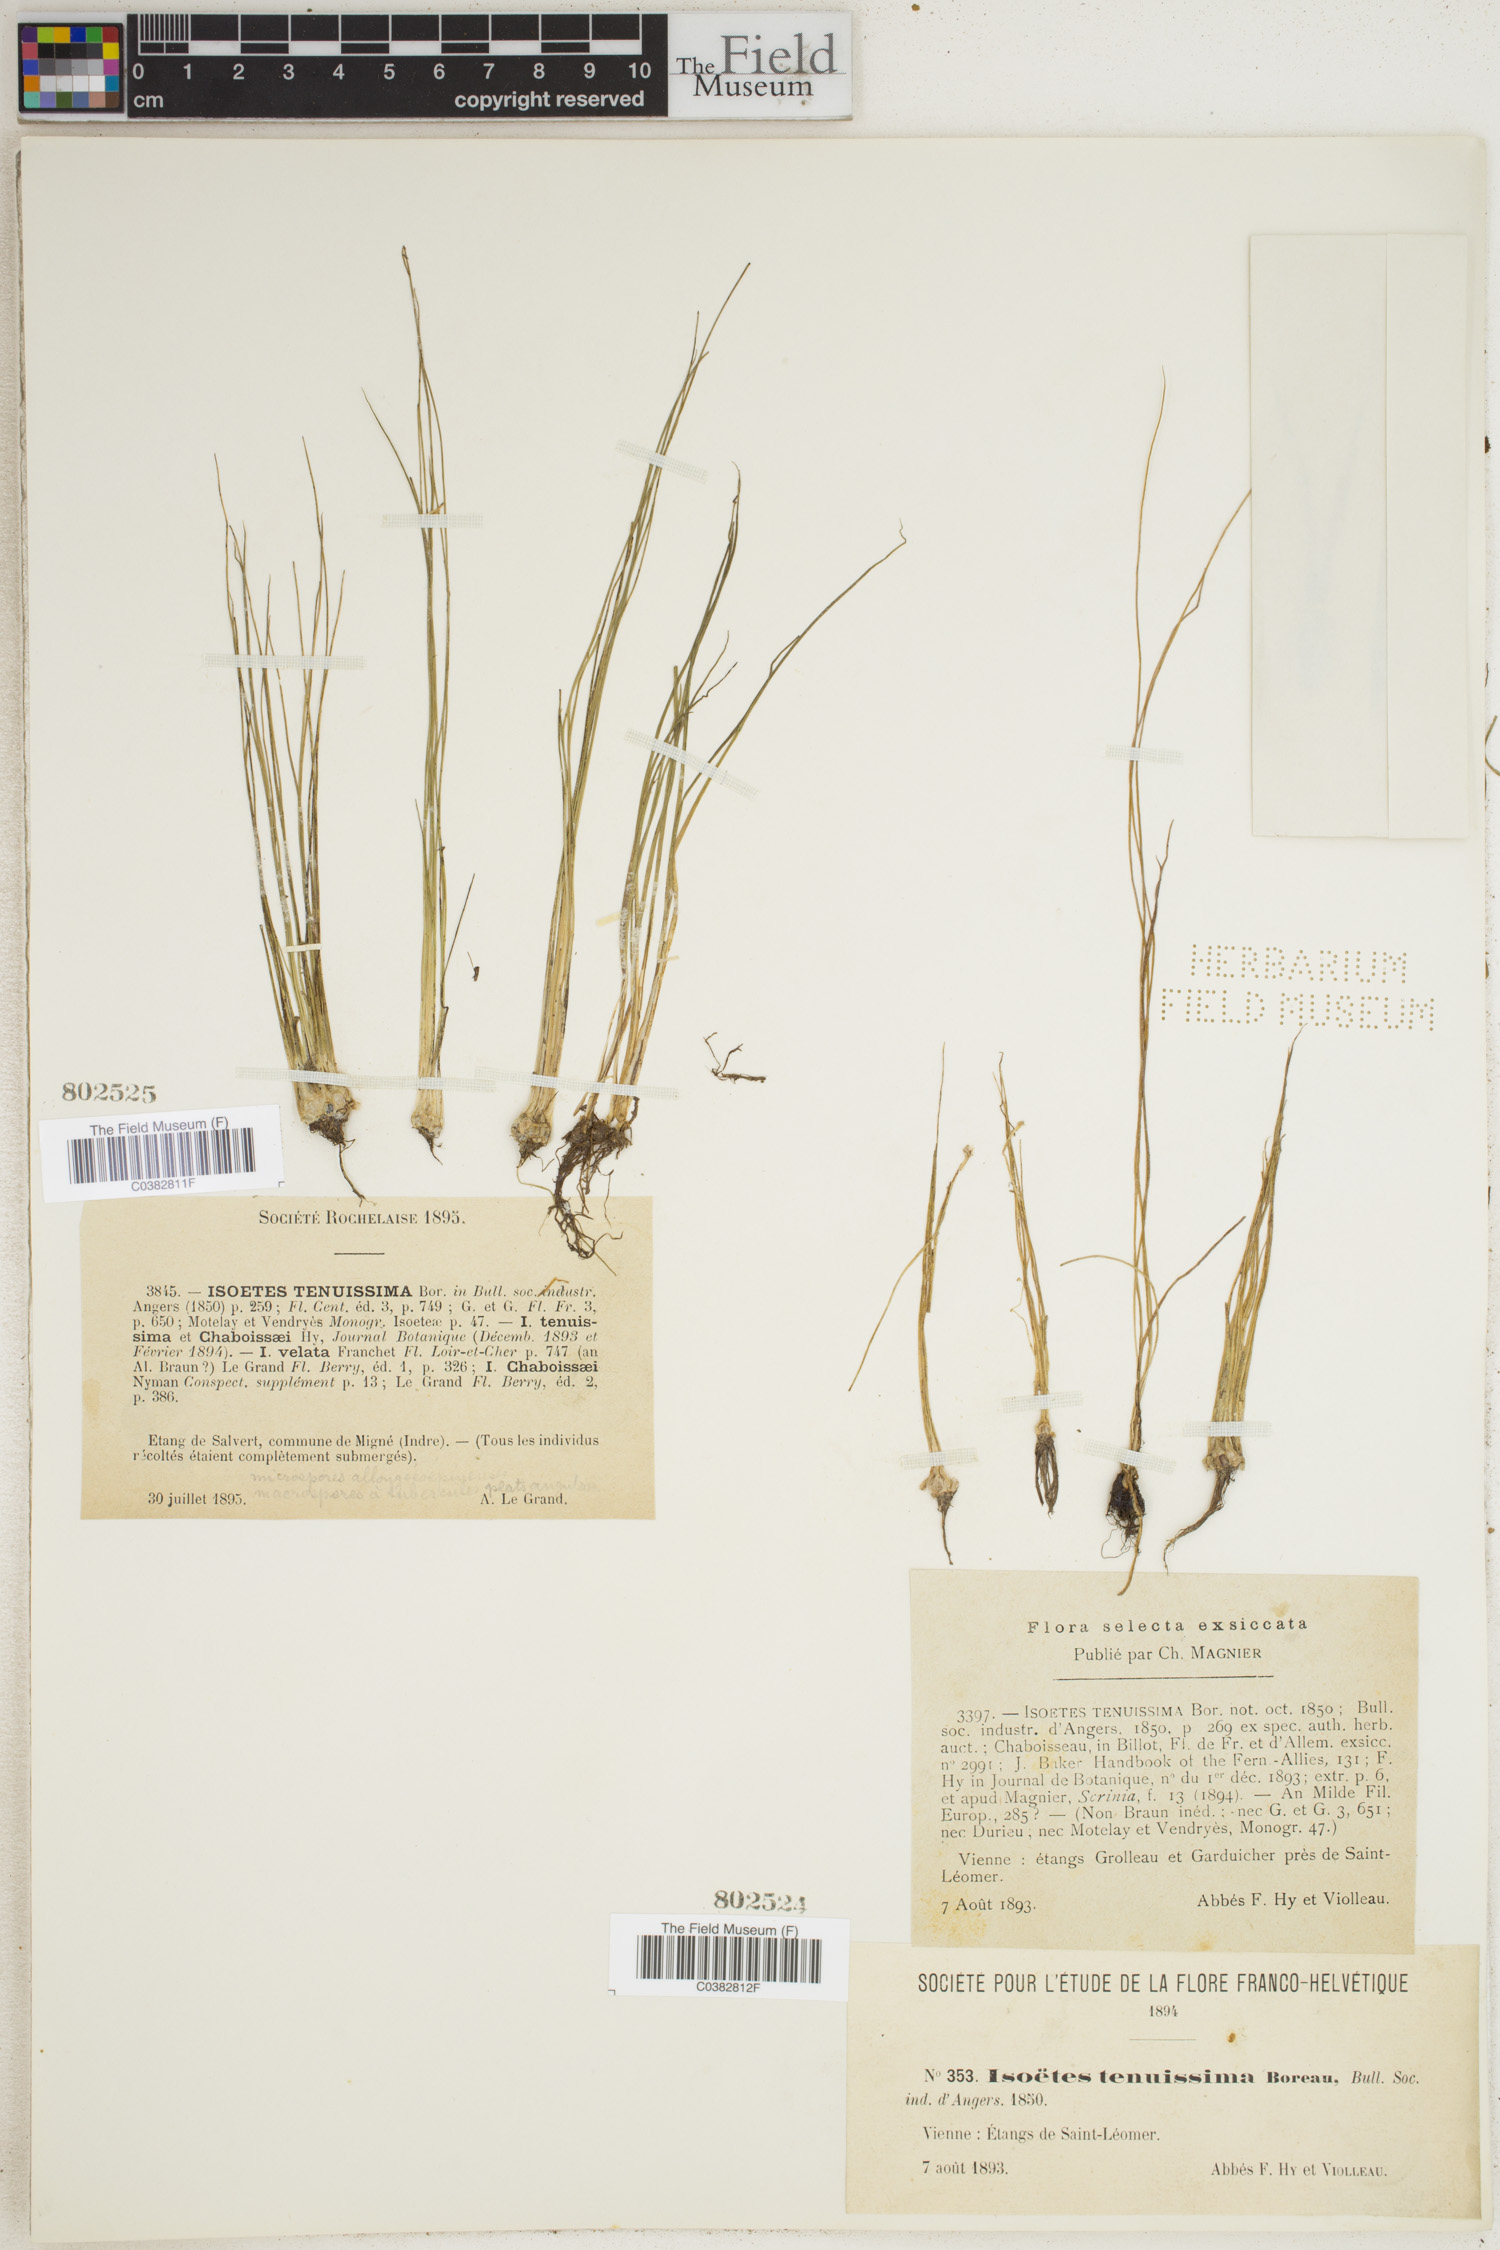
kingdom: Plantae
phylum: Tracheophyta
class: Lycopodiopsida
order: Isoetales
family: Isoetaceae
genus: Isoetes
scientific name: Isoetes
